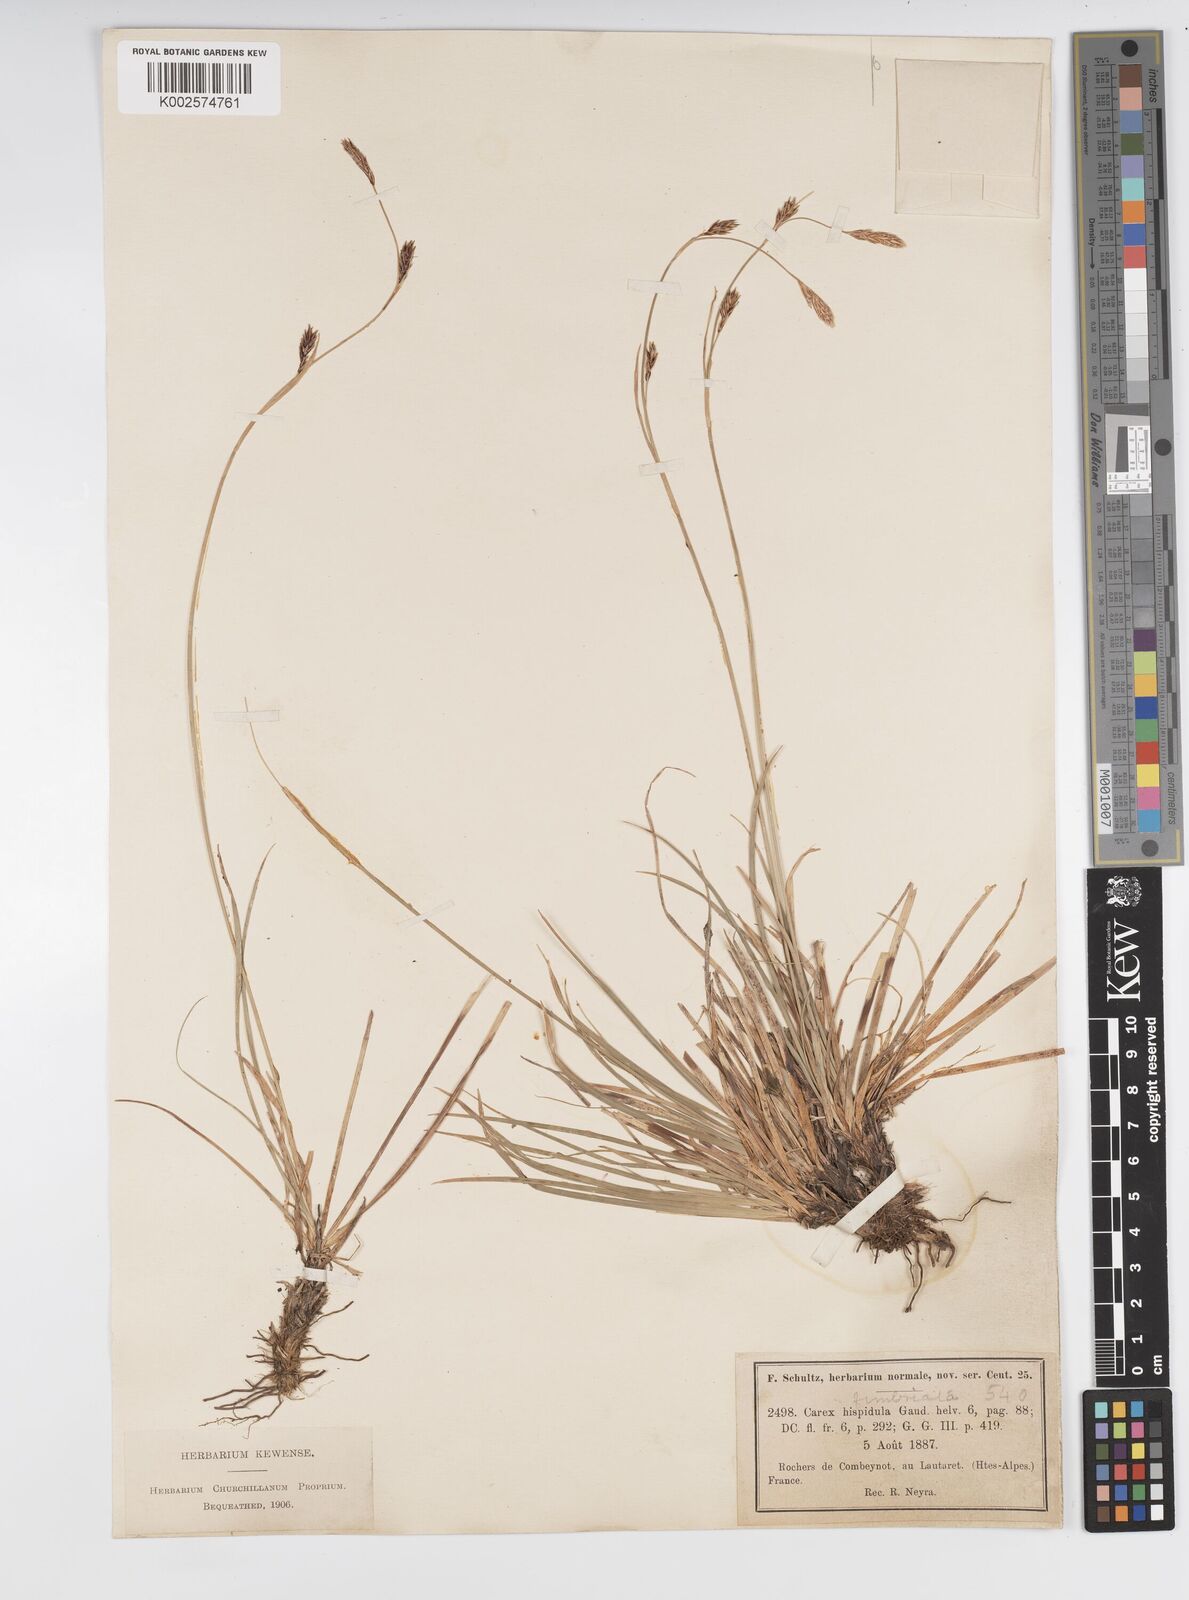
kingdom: Plantae
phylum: Tracheophyta
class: Liliopsida
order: Poales
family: Cyperaceae
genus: Carex
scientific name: Carex fimbriata
